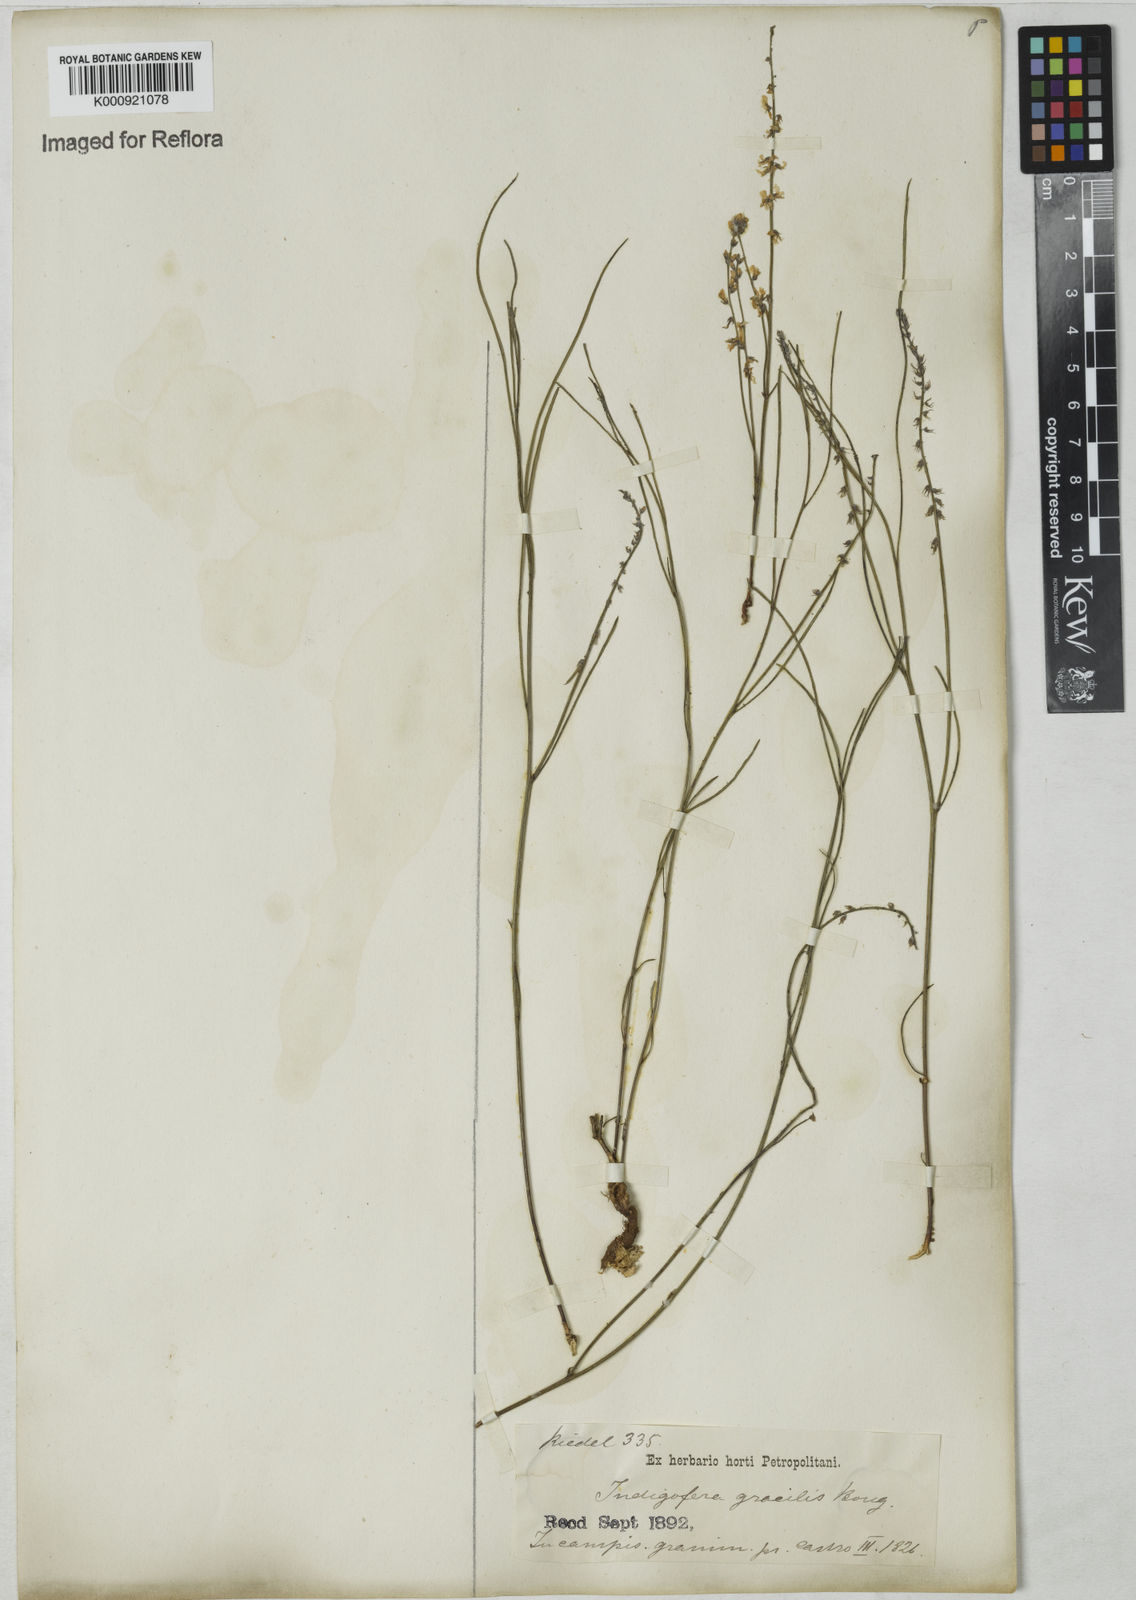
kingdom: Plantae
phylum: Tracheophyta
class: Magnoliopsida
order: Fabales
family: Fabaceae
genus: Indigofera
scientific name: Indigofera bongardiana
